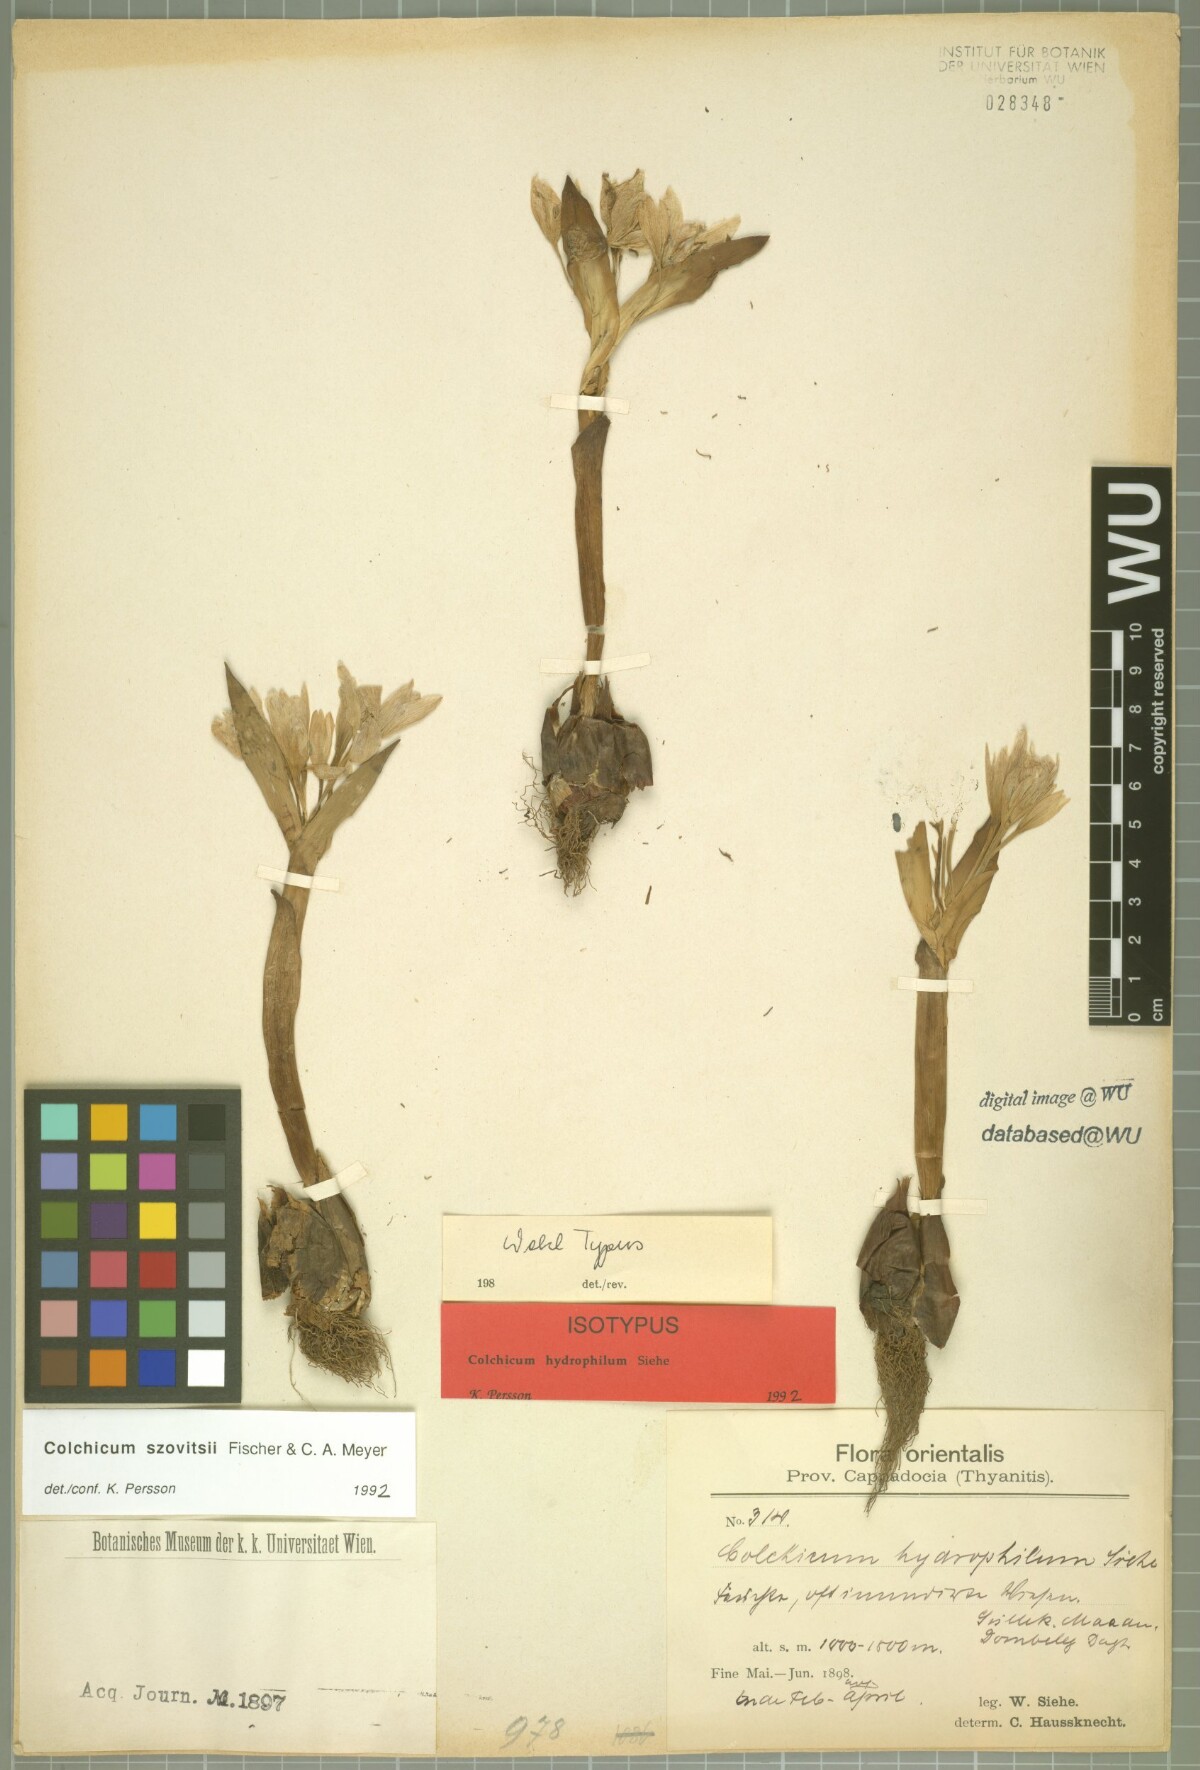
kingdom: Plantae
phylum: Tracheophyta
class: Liliopsida
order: Liliales
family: Colchicaceae
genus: Colchicum
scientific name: Colchicum szovitsii
